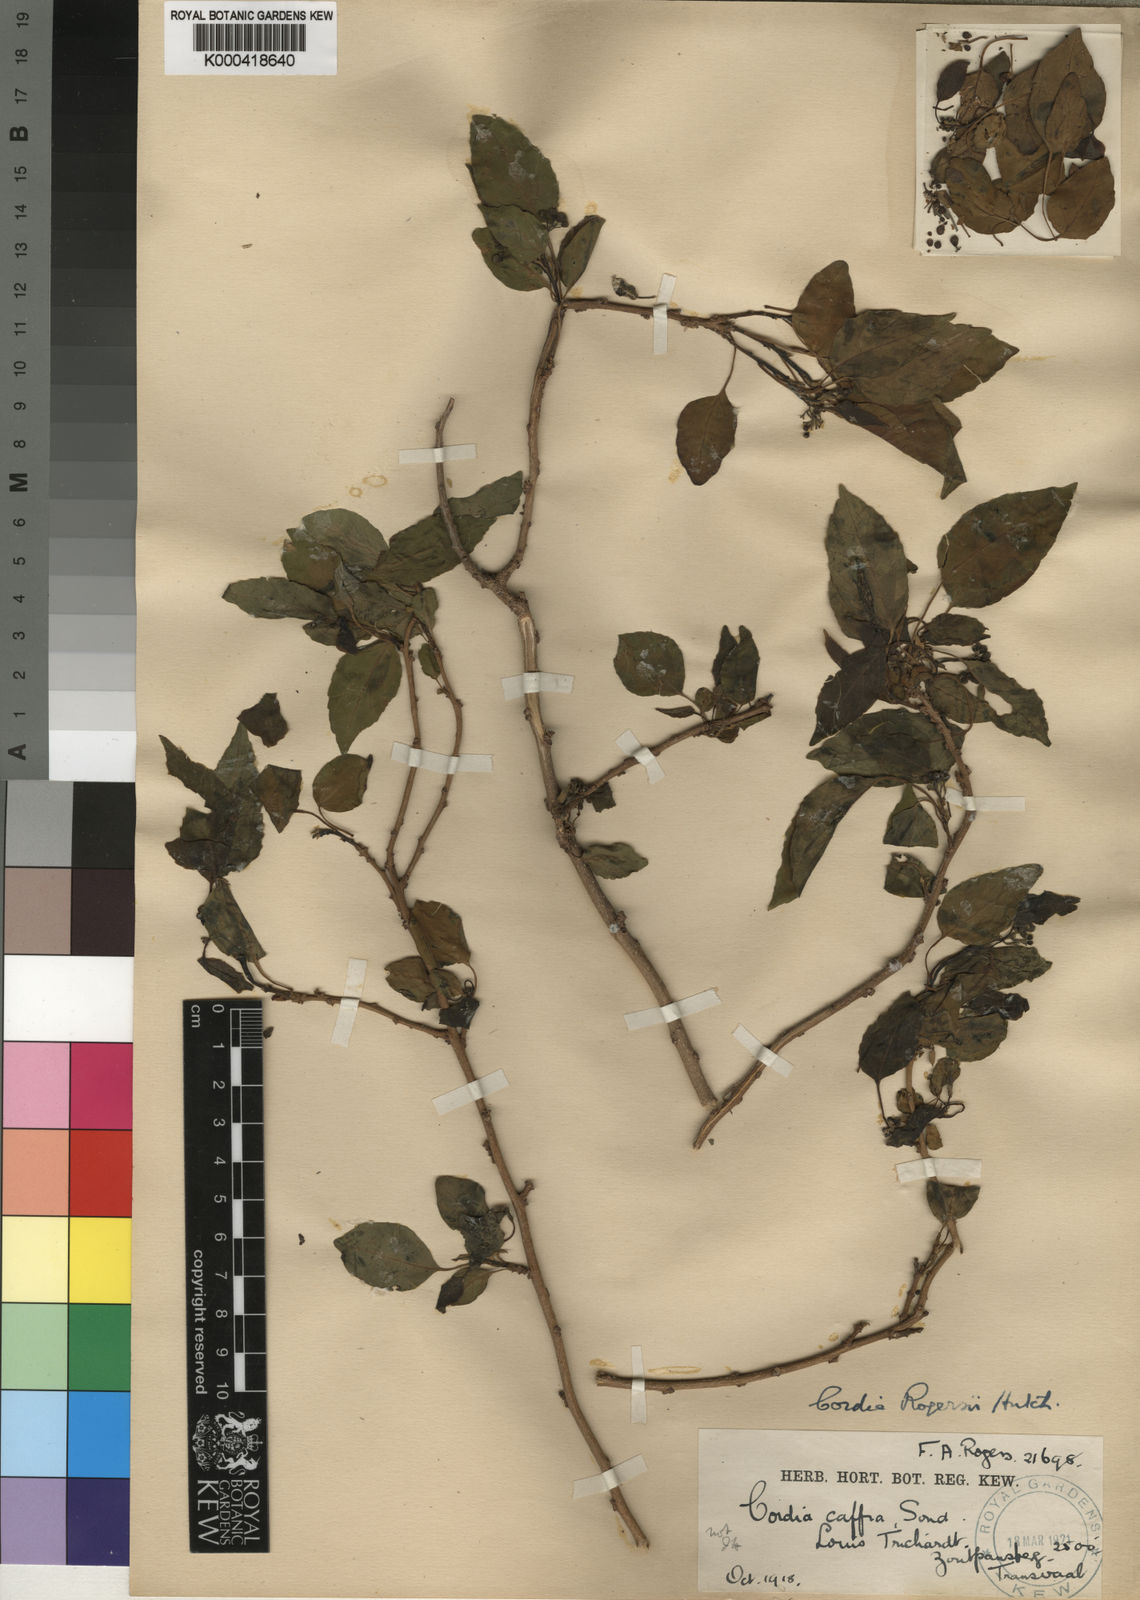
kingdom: Plantae
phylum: Tracheophyta
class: Magnoliopsida
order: Boraginales
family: Cordiaceae
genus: Cordia
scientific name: Cordia caffra
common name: Septee tree
